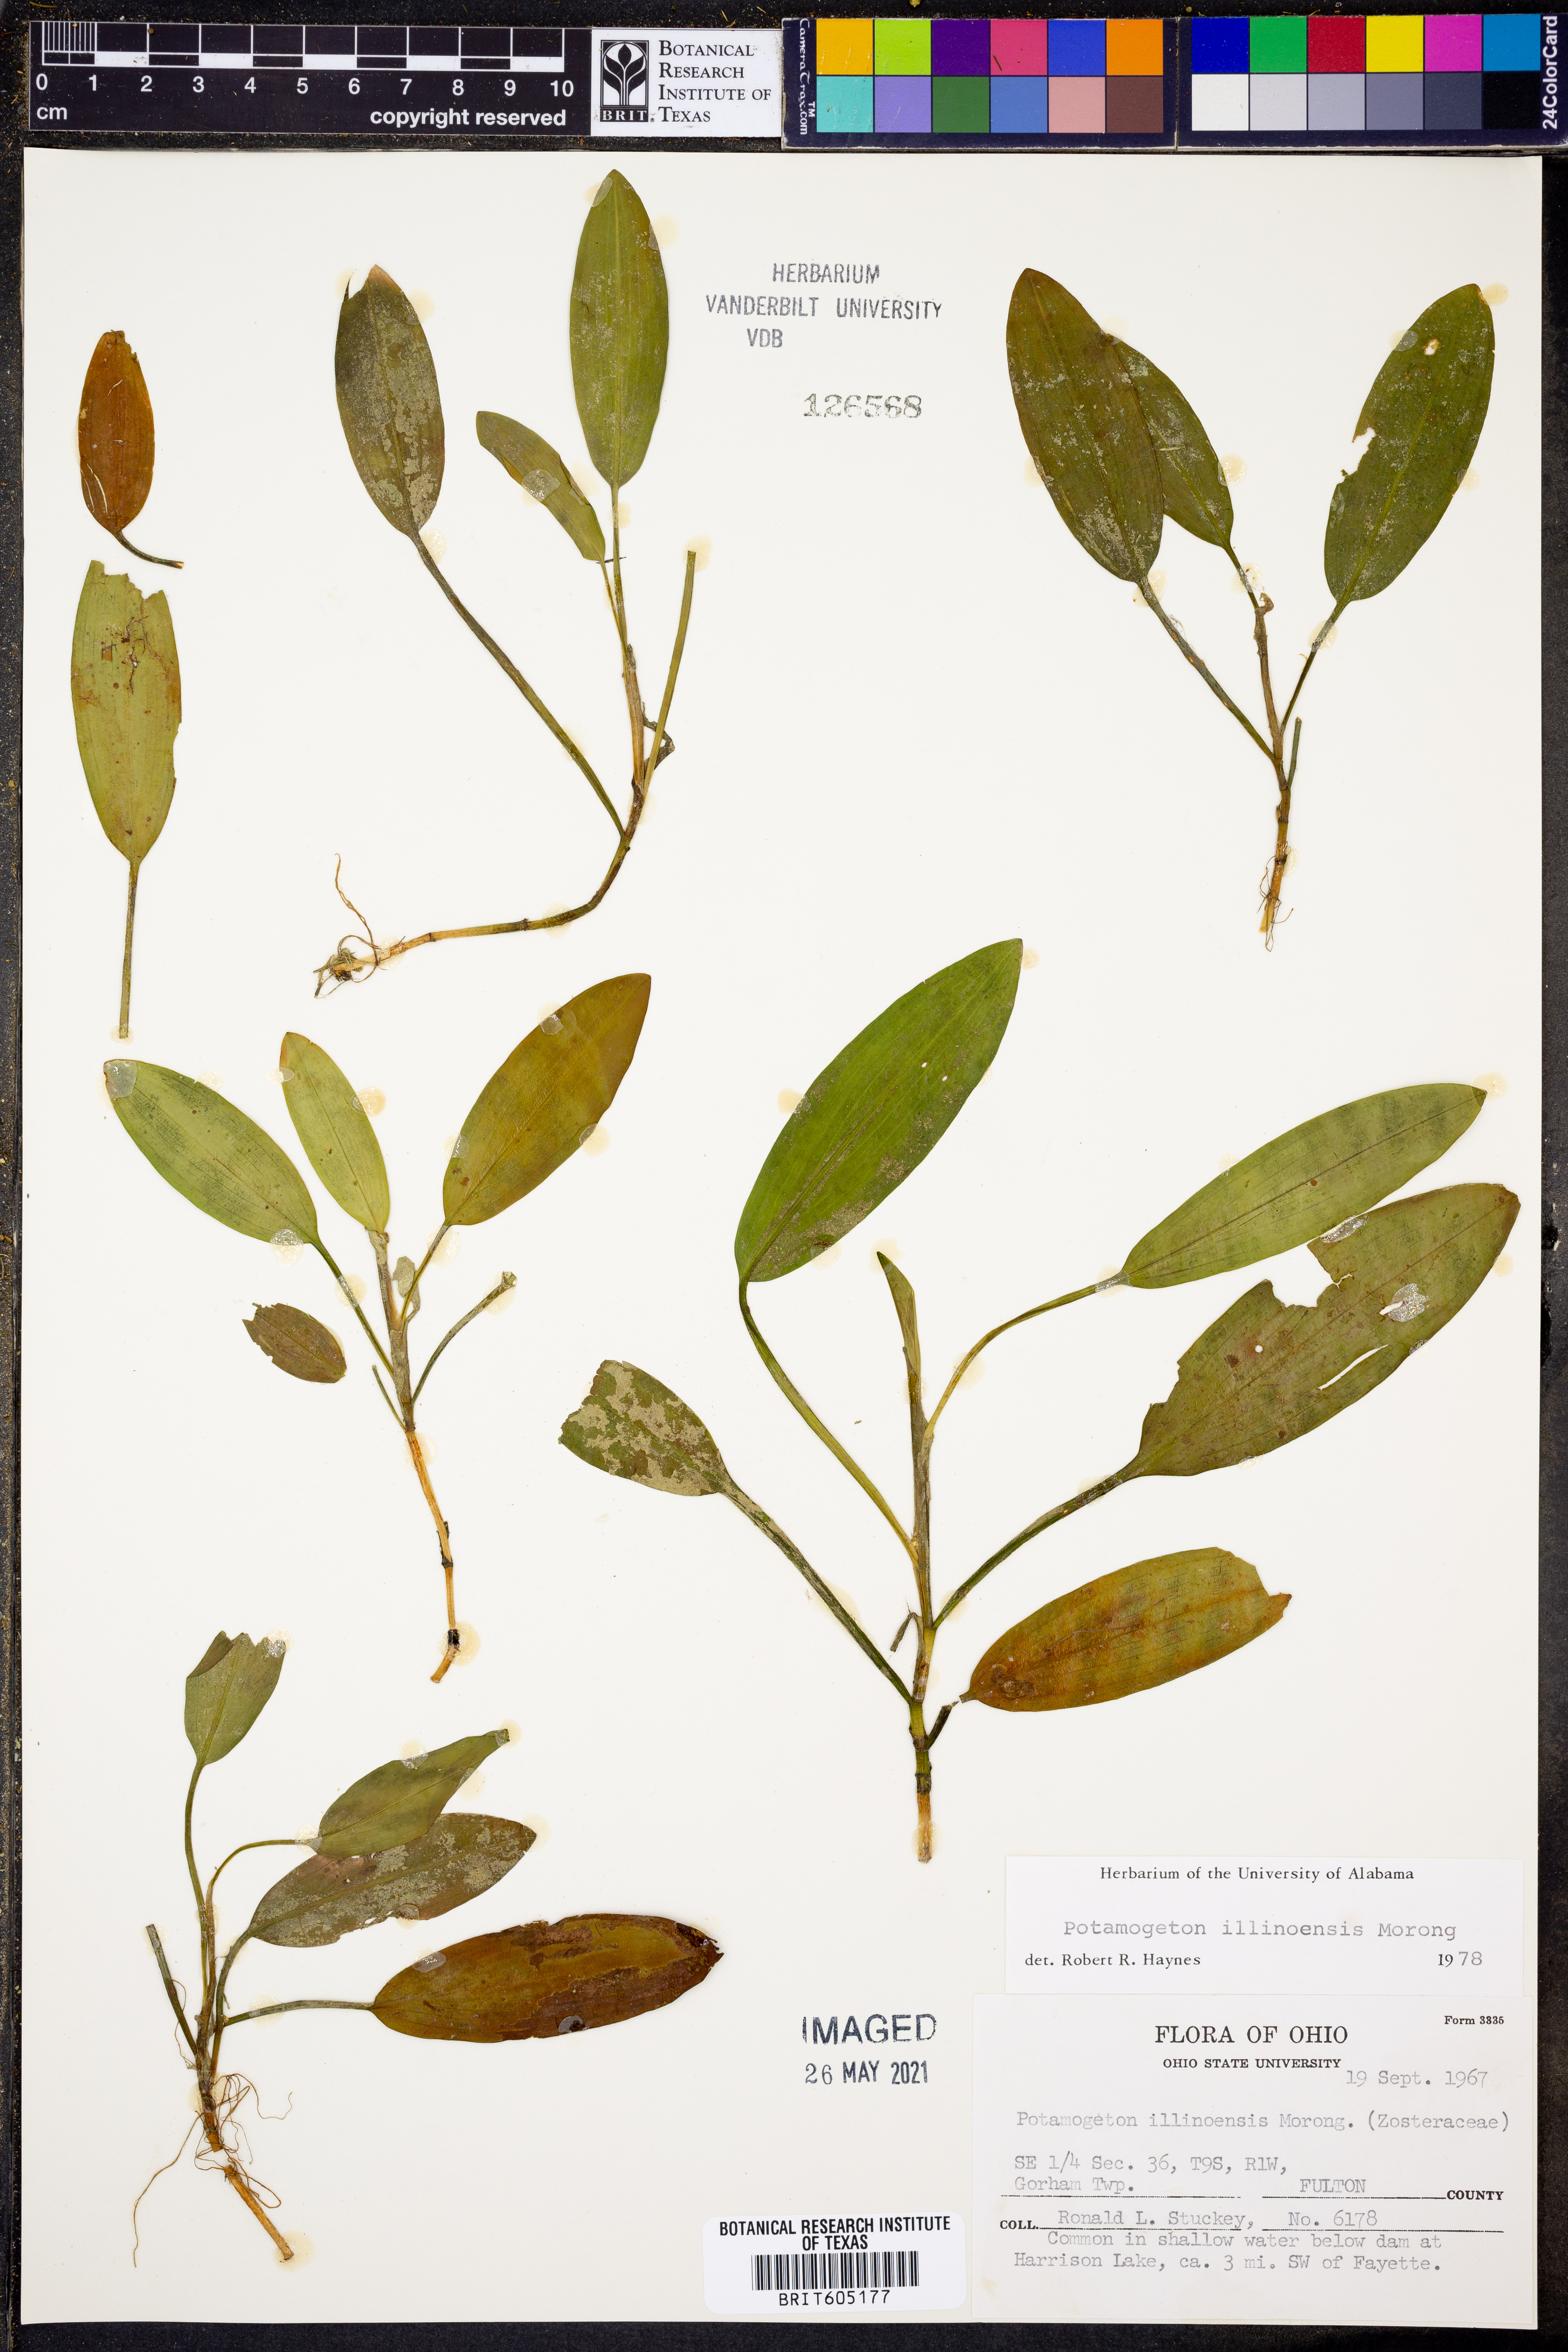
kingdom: Plantae
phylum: Tracheophyta
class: Liliopsida
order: Alismatales
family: Potamogetonaceae
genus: Potamogeton
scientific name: Potamogeton illinoensis
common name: Illinois pondweed
